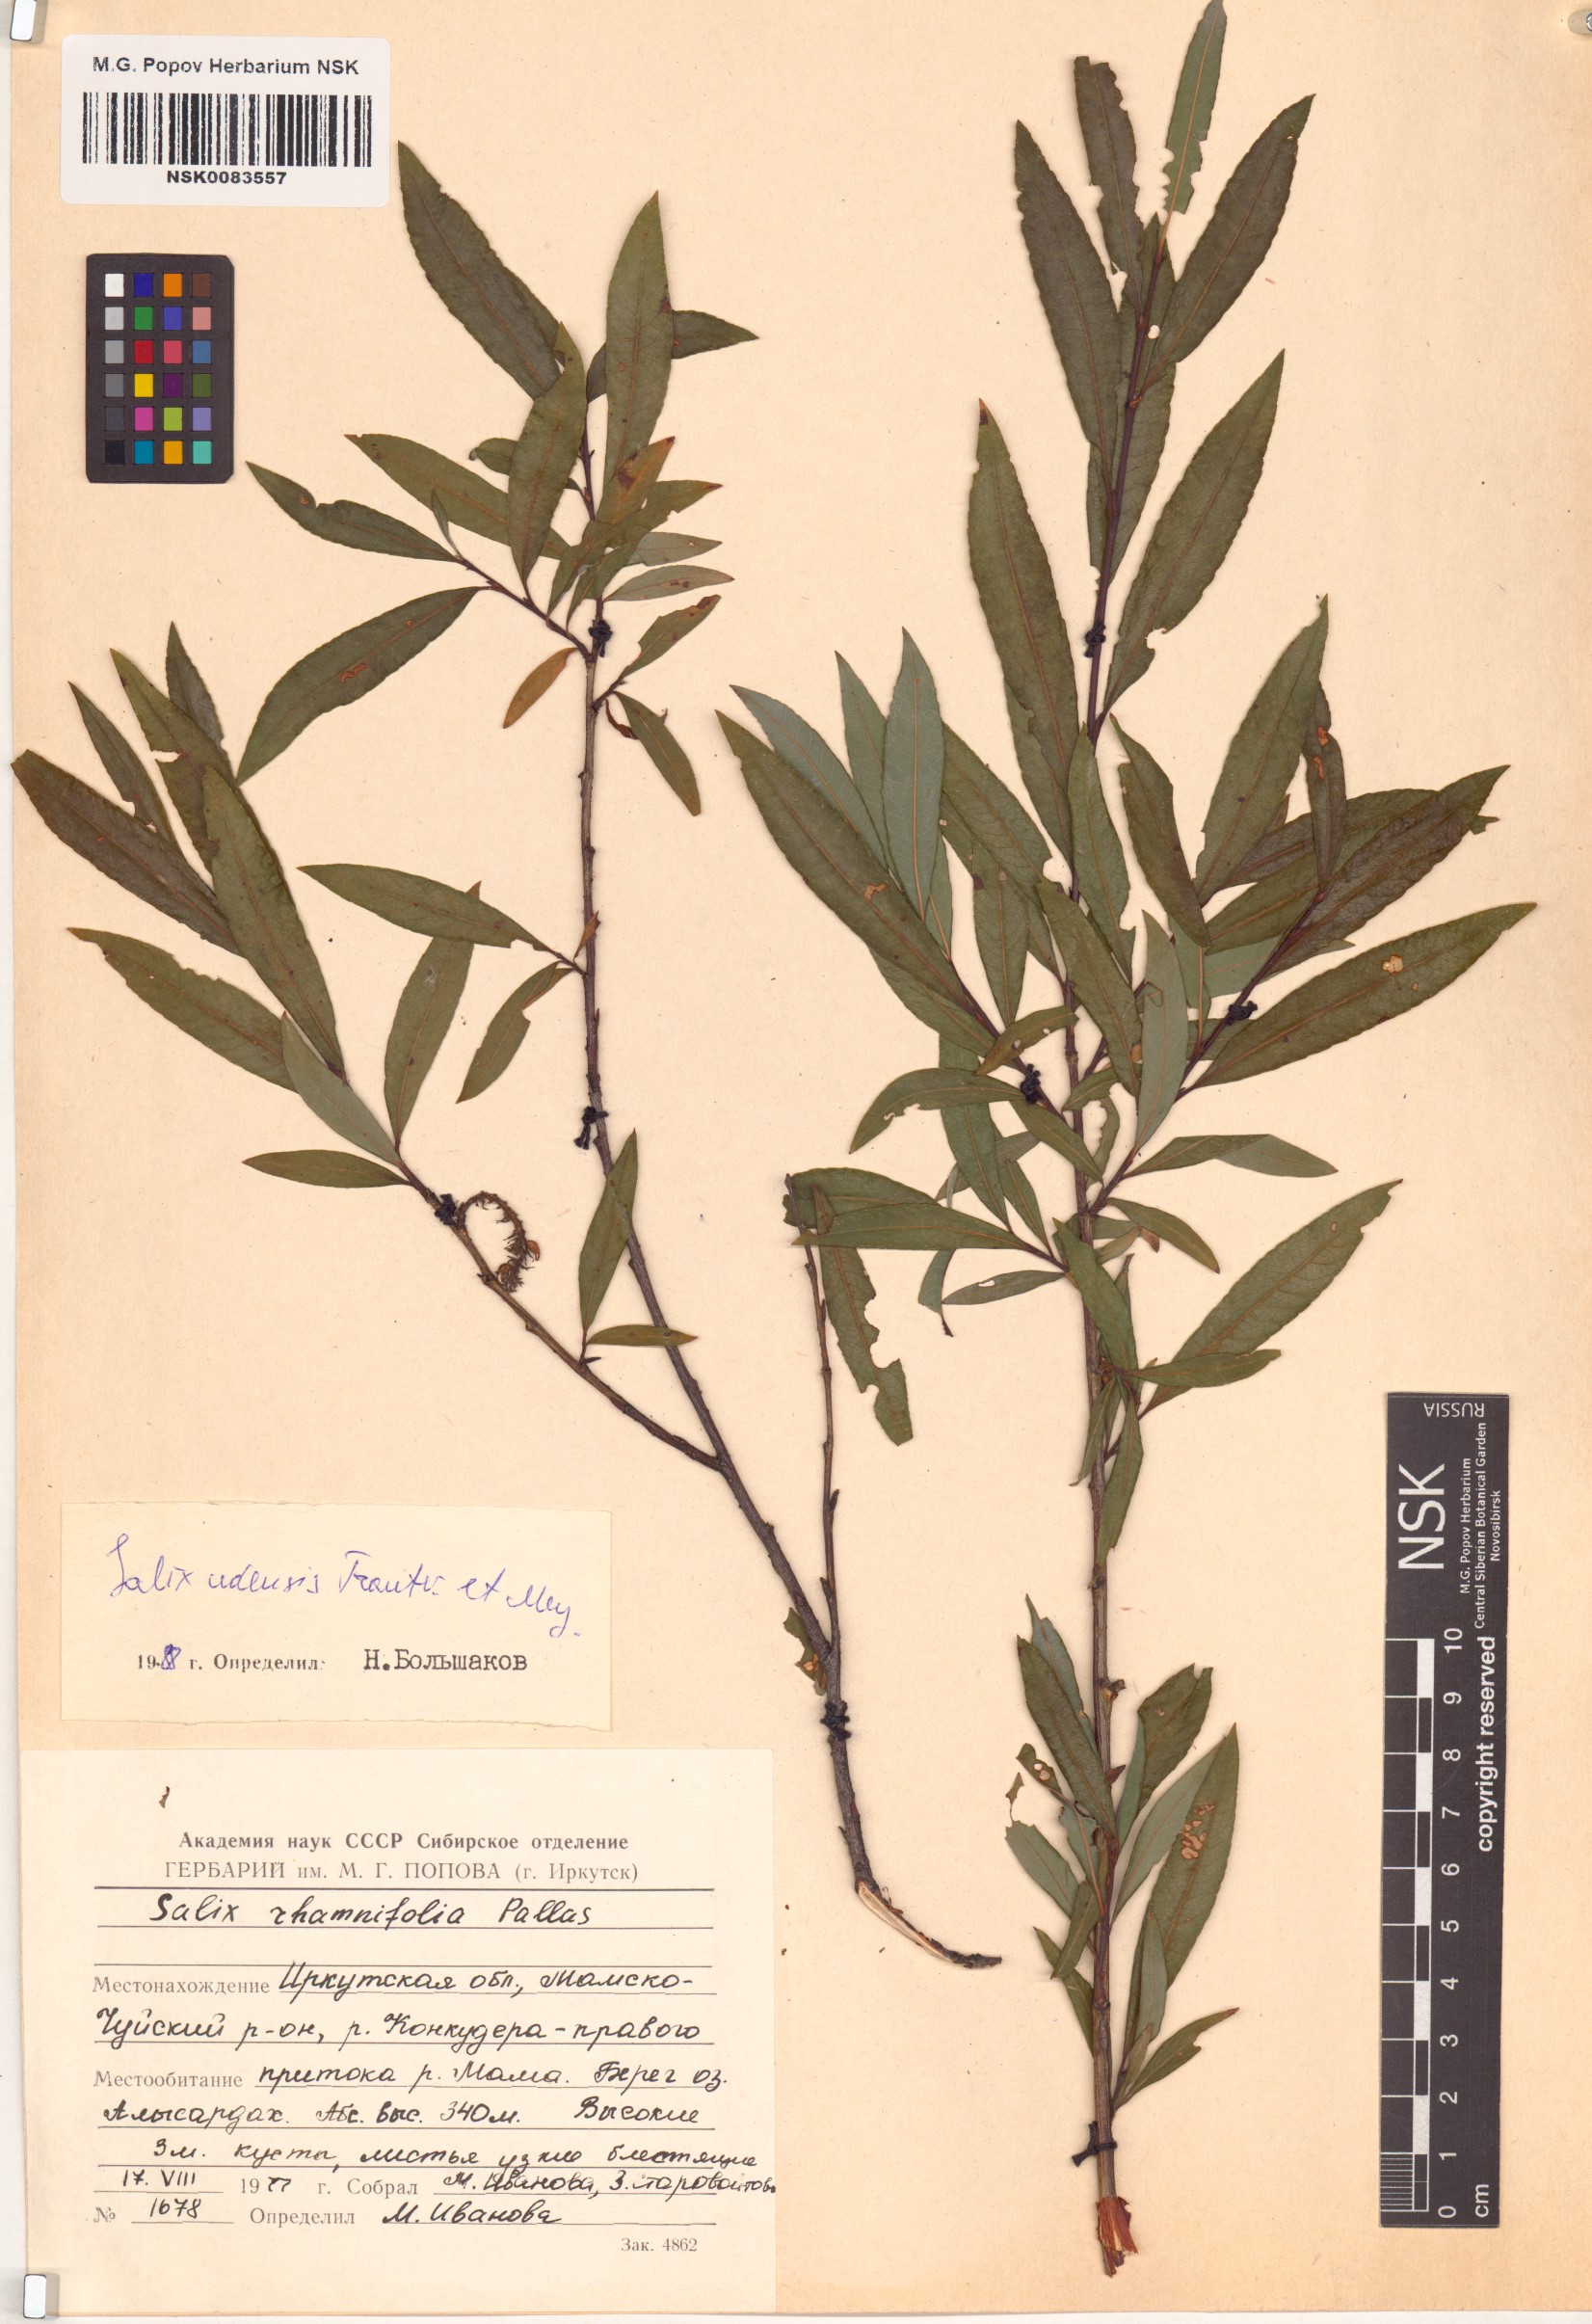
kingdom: Plantae
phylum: Tracheophyta
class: Magnoliopsida
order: Malpighiales
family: Salicaceae
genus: Salix
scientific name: Salix udensis
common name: Sachalin willow
